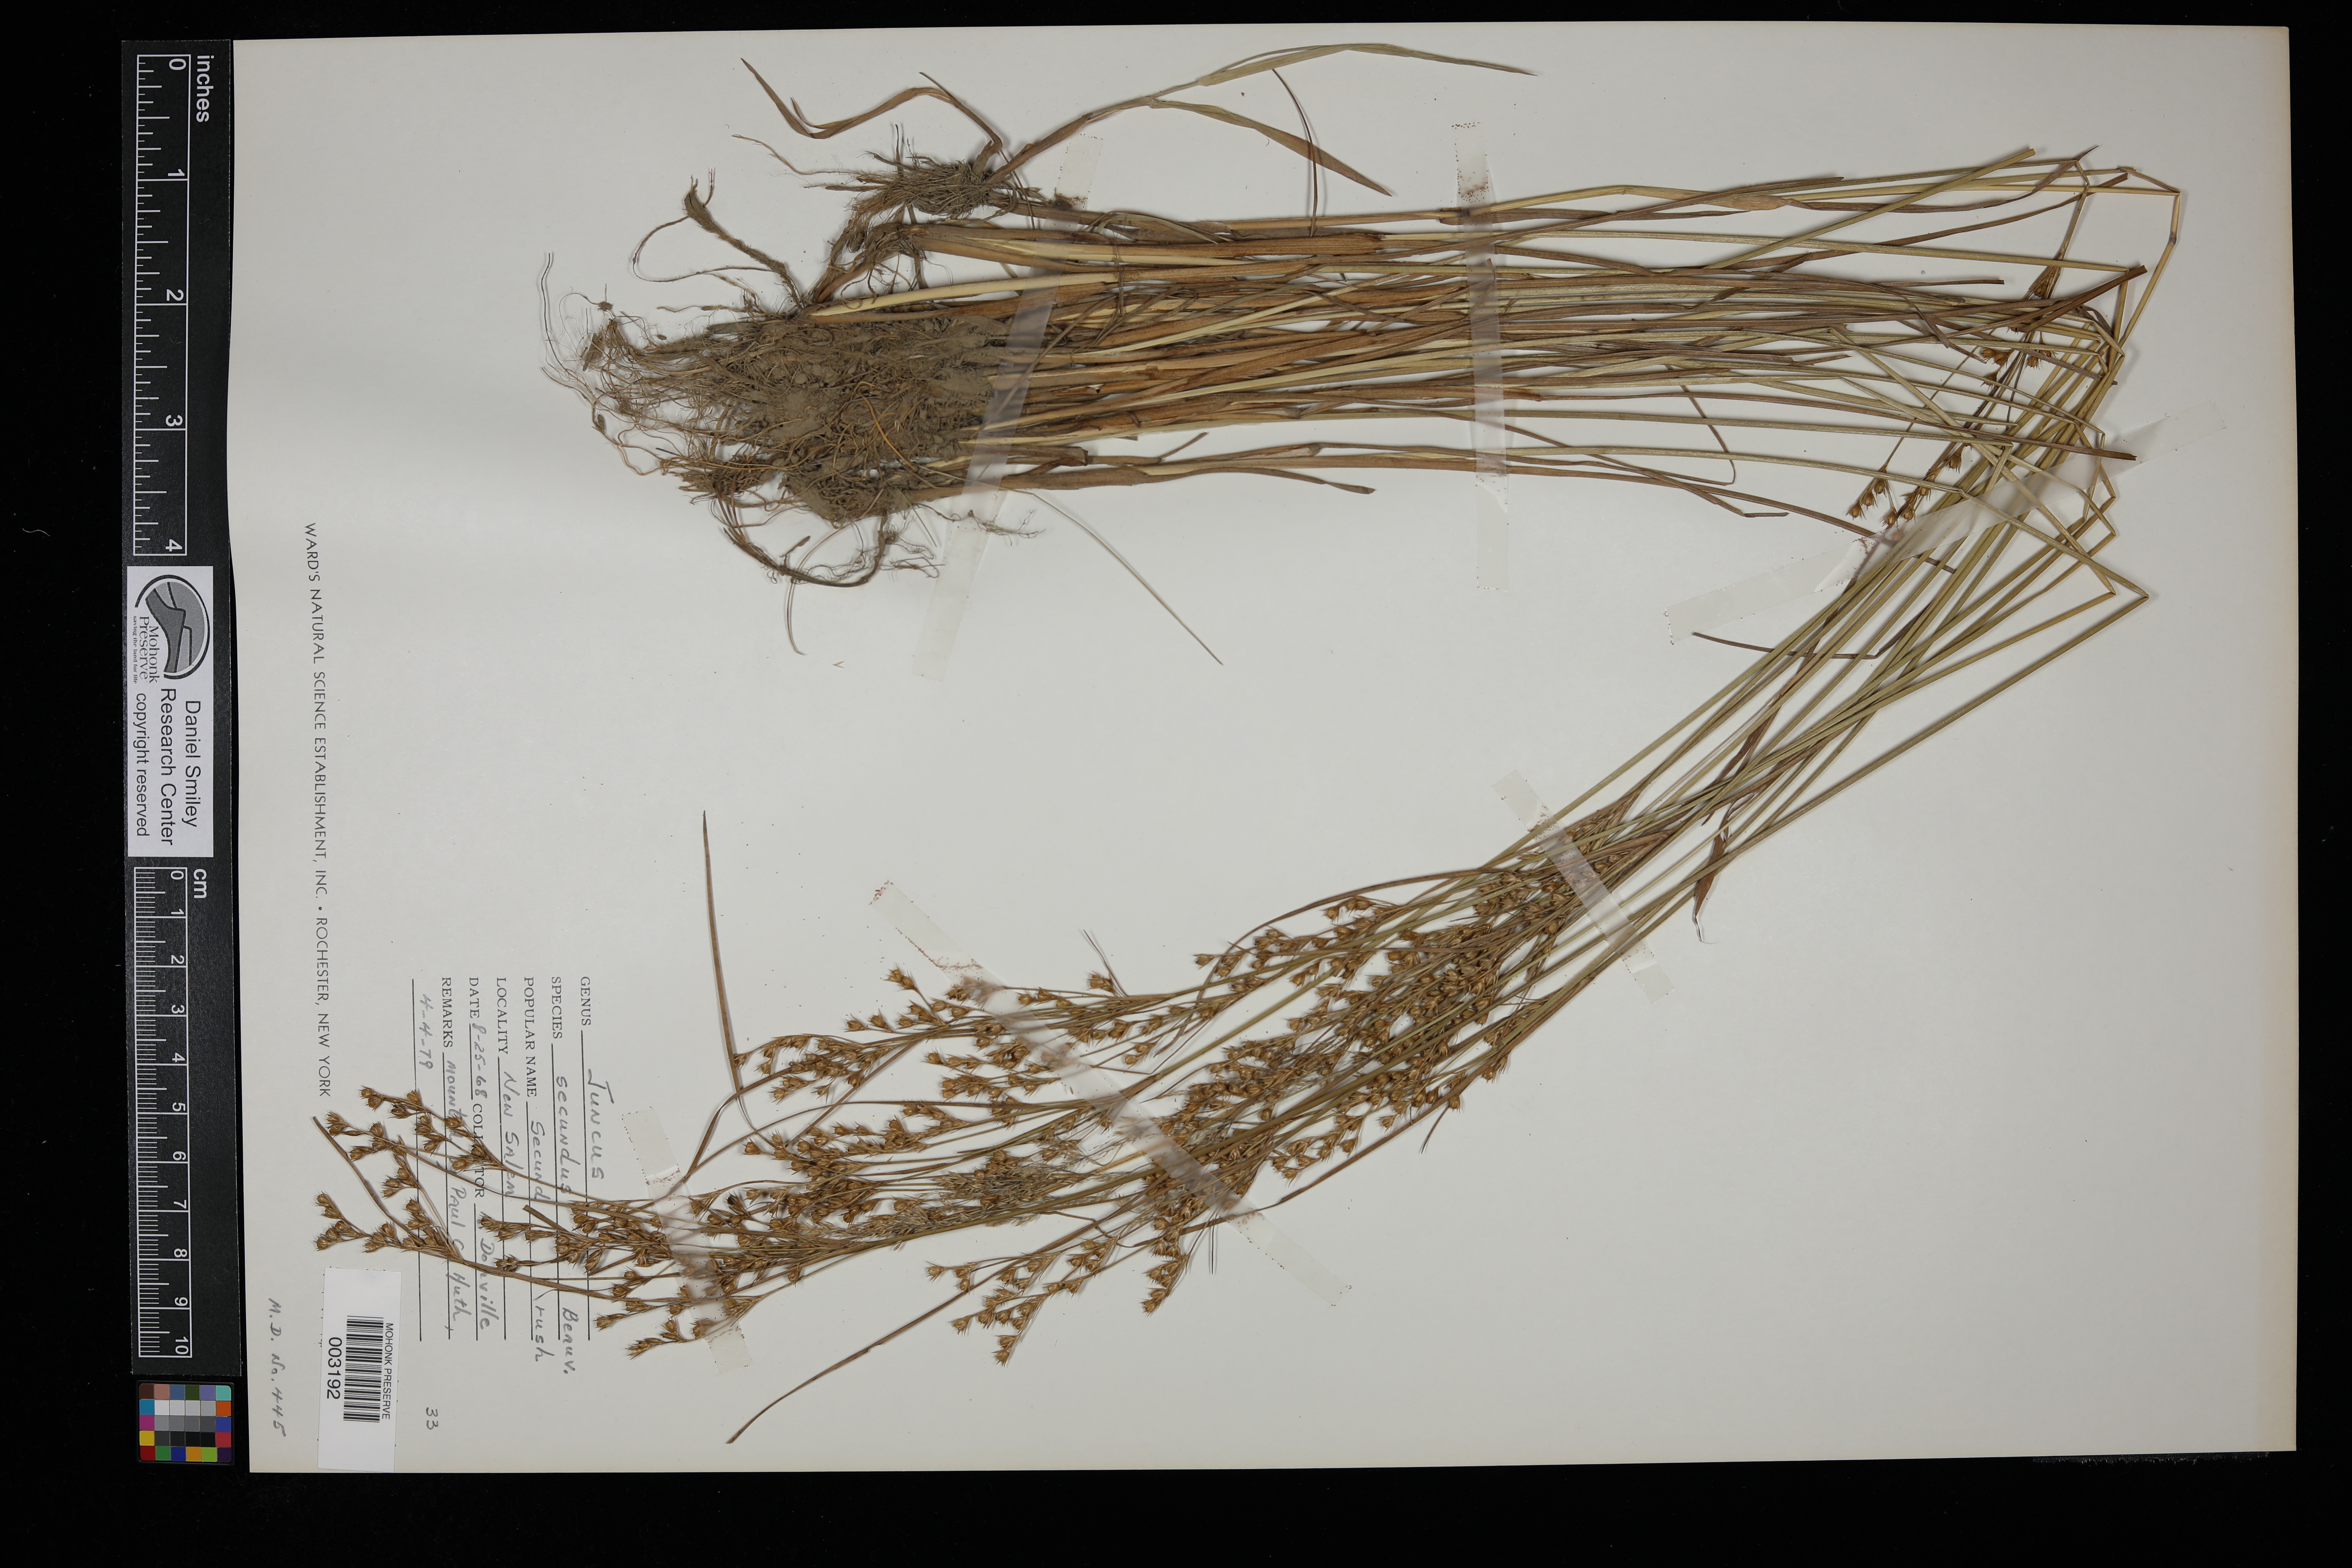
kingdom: Plantae
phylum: Tracheophyta
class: Liliopsida
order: Poales
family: Juncaceae
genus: Juncus
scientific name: Juncus secundus
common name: Lopsided rush
